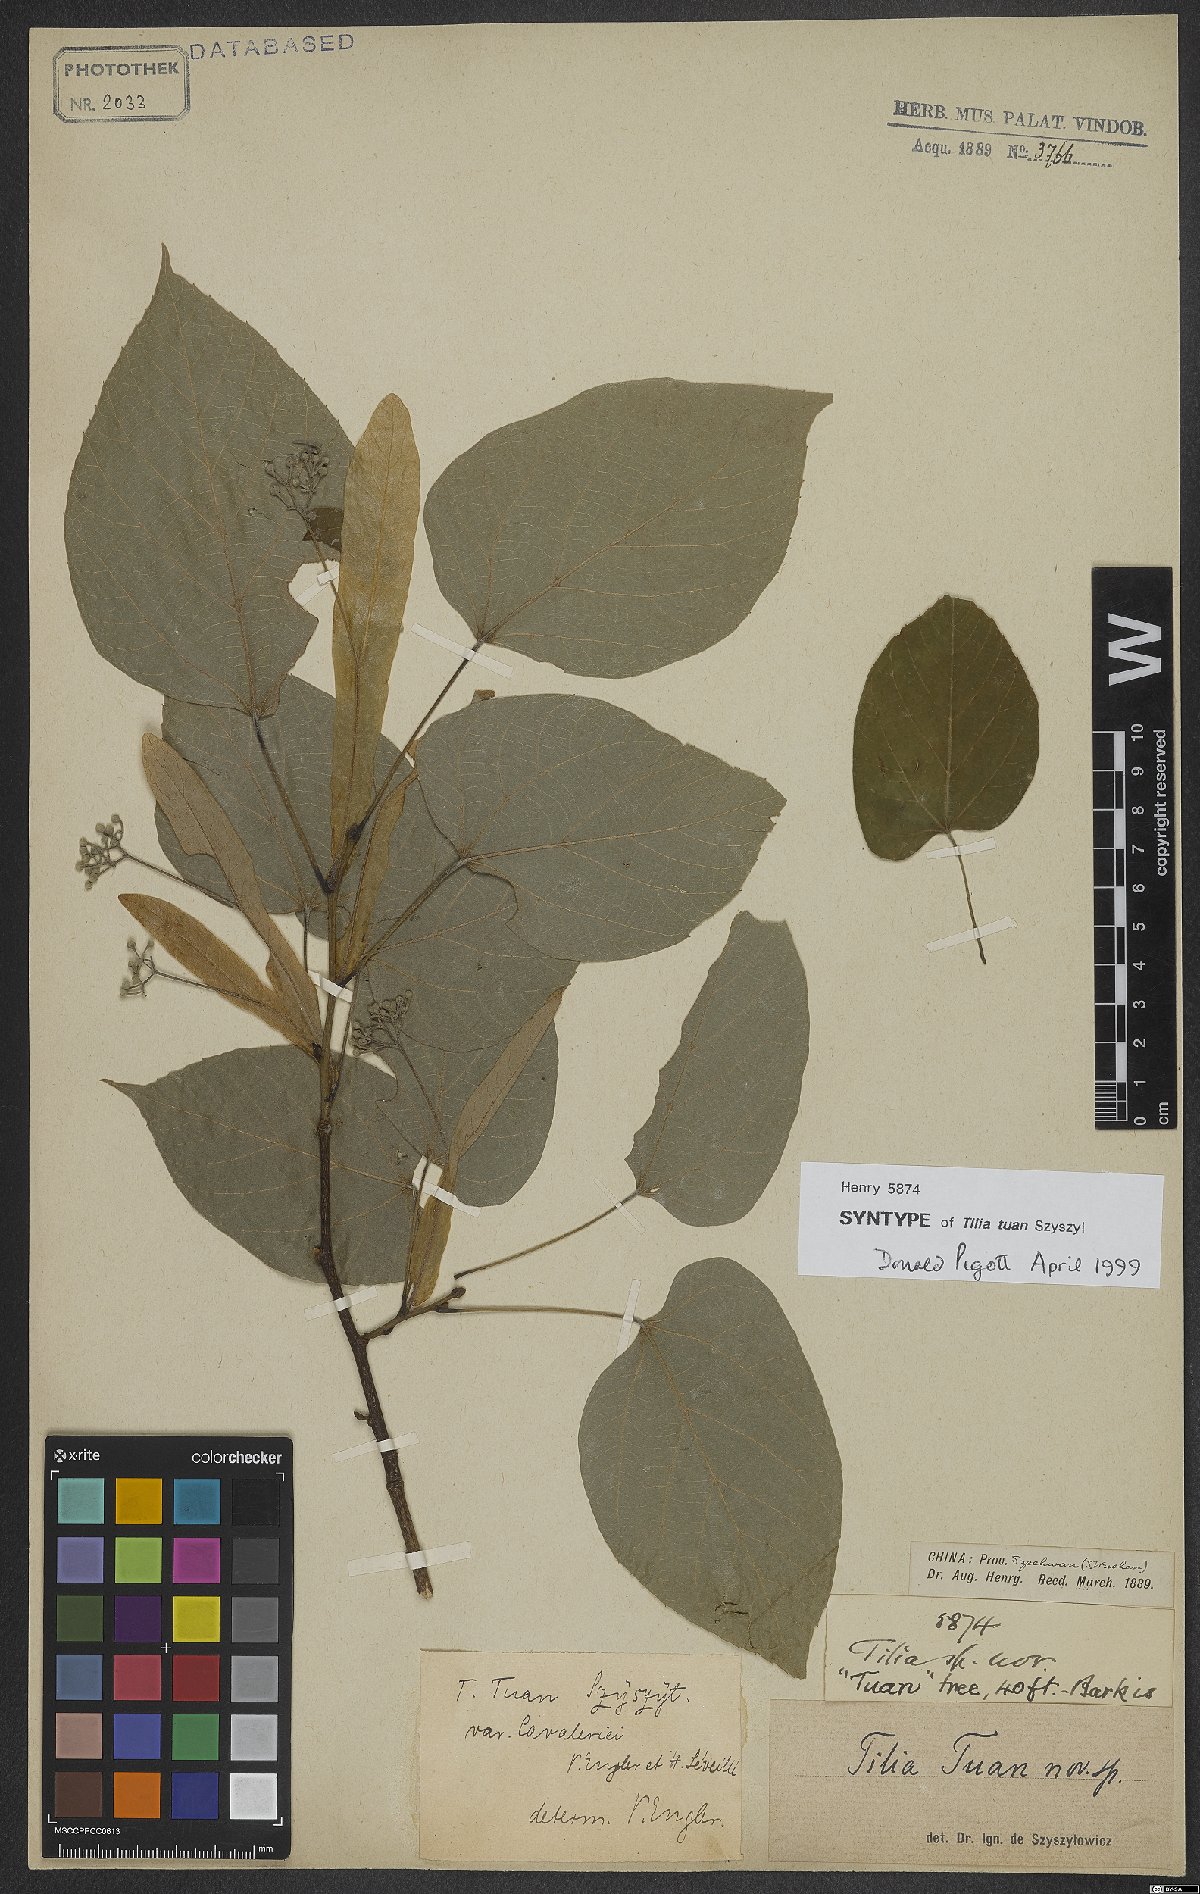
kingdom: Plantae
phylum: Tracheophyta
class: Magnoliopsida
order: Malvales
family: Malvaceae
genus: Tilia
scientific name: Tilia tuan
